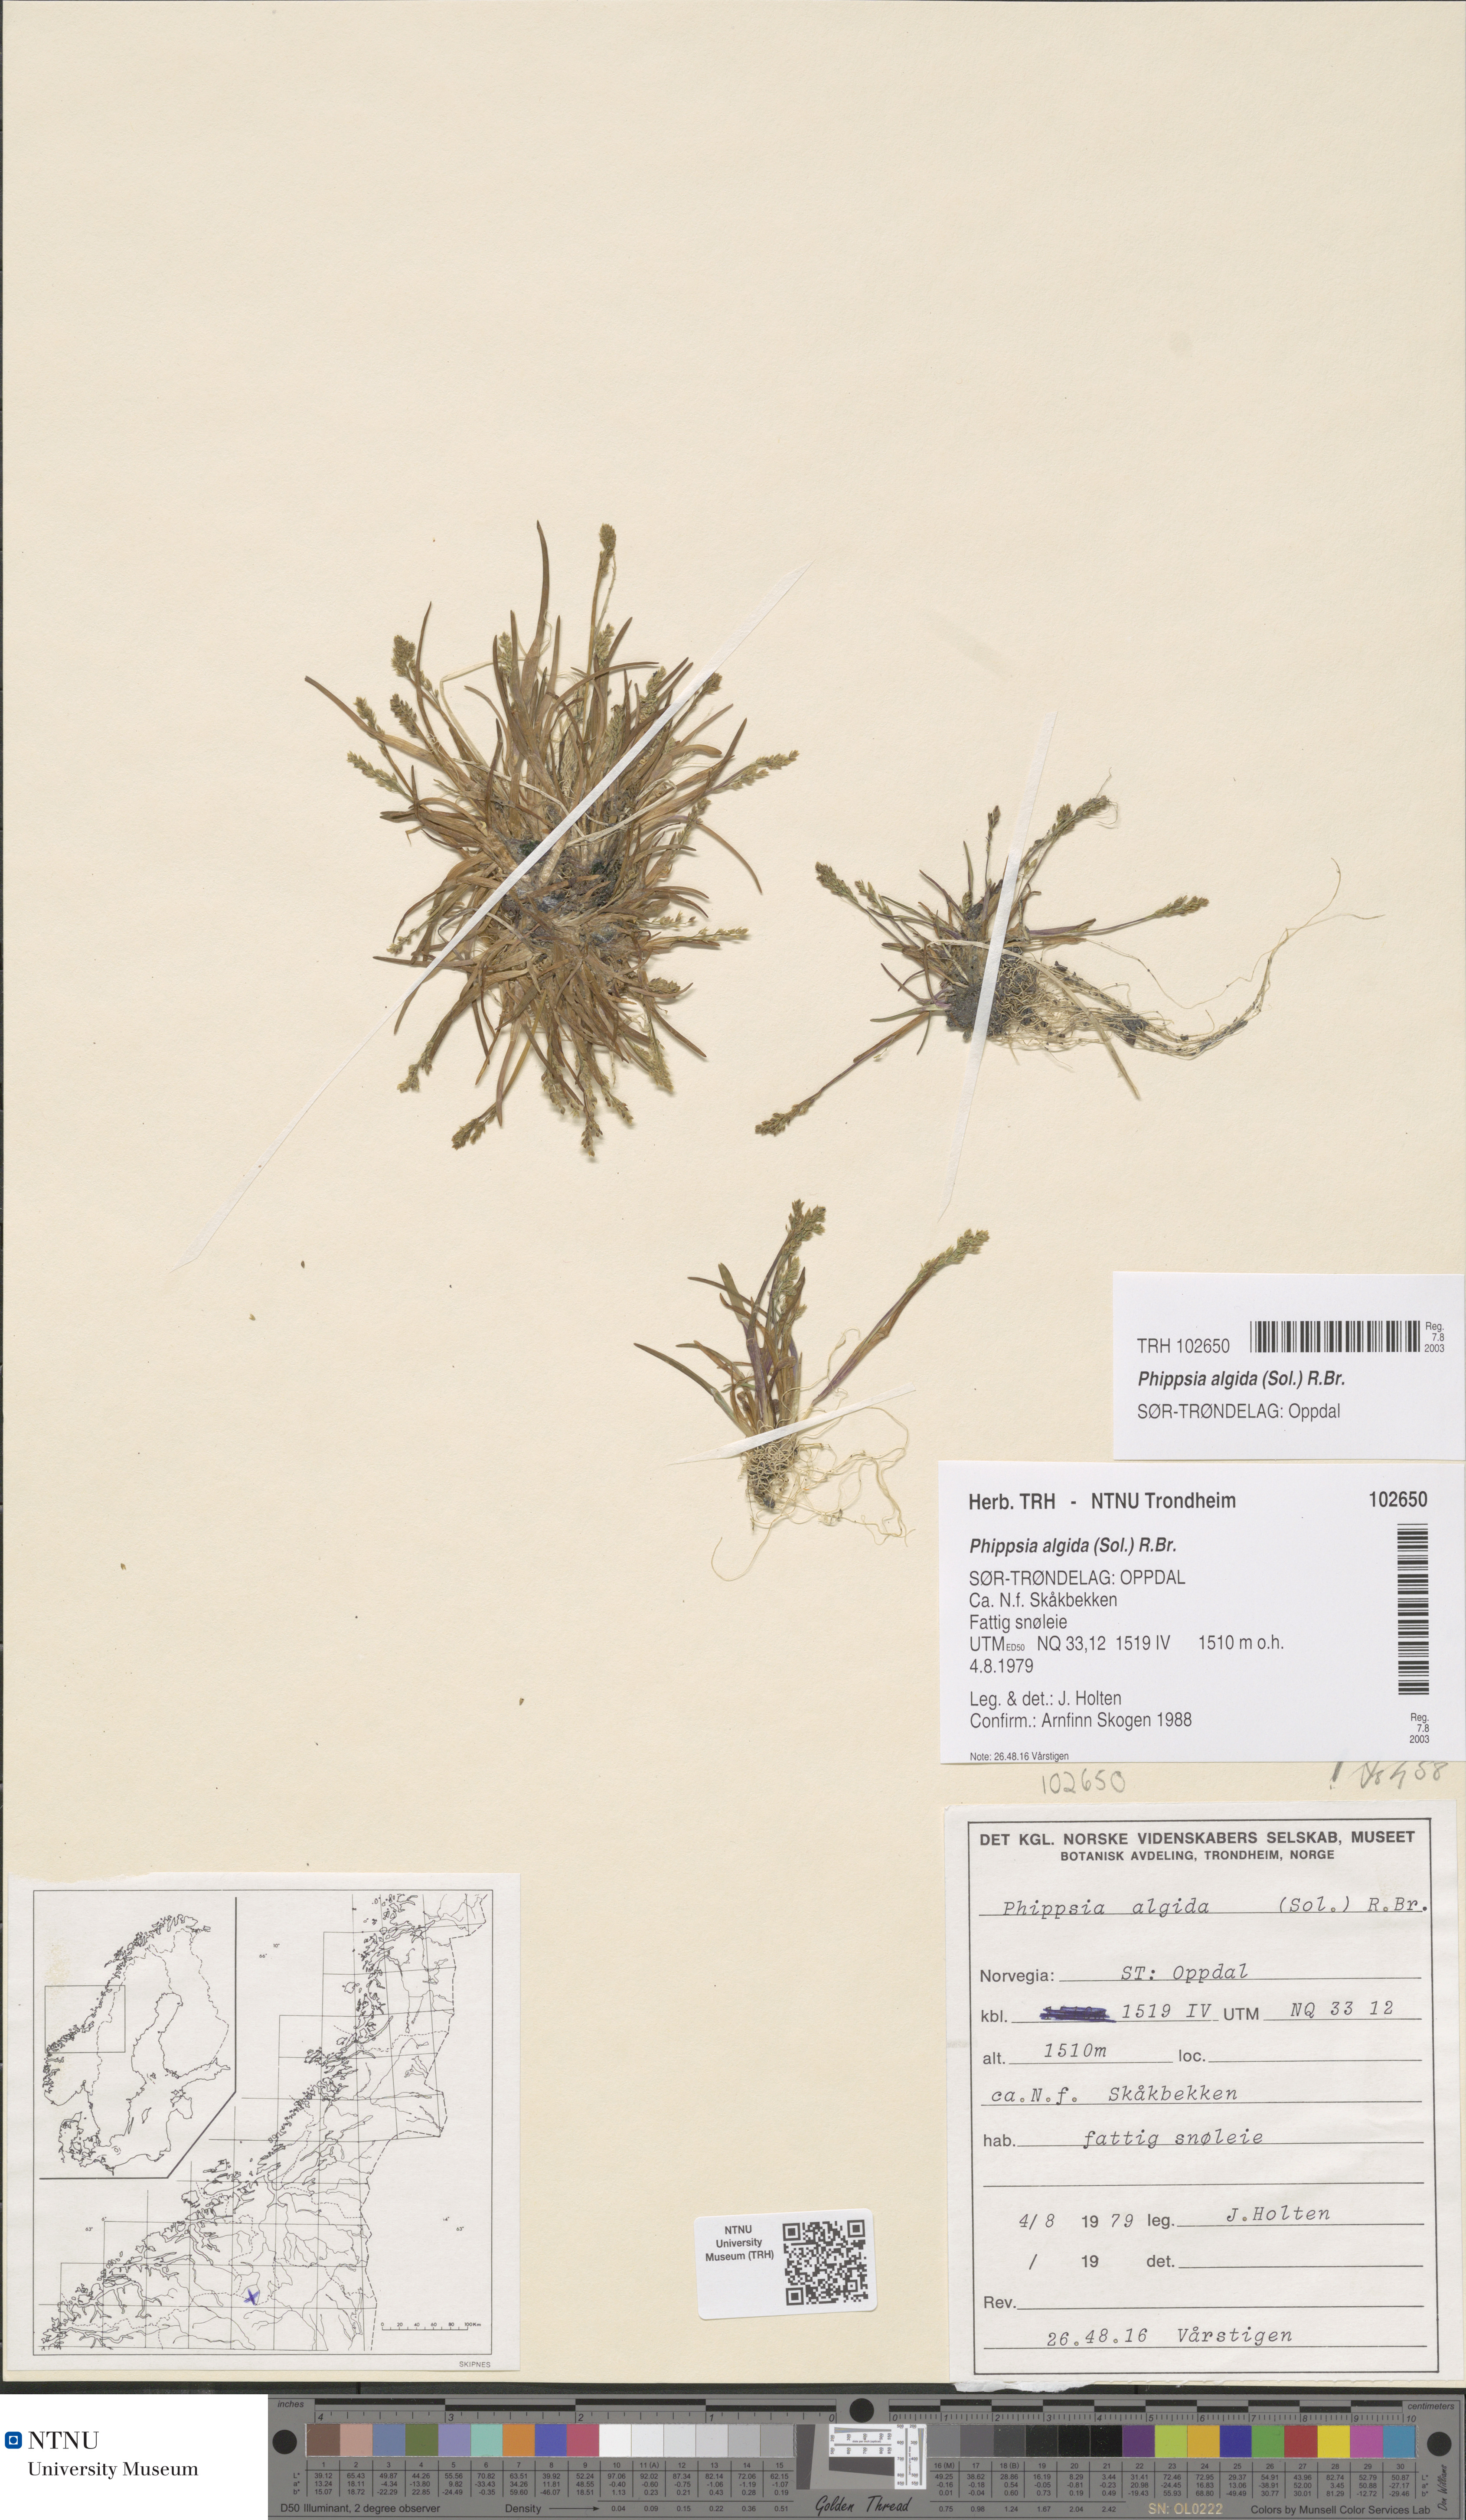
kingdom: Plantae
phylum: Tracheophyta
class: Liliopsida
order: Poales
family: Poaceae
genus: Phippsia
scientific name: Phippsia algida
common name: Ice grass
